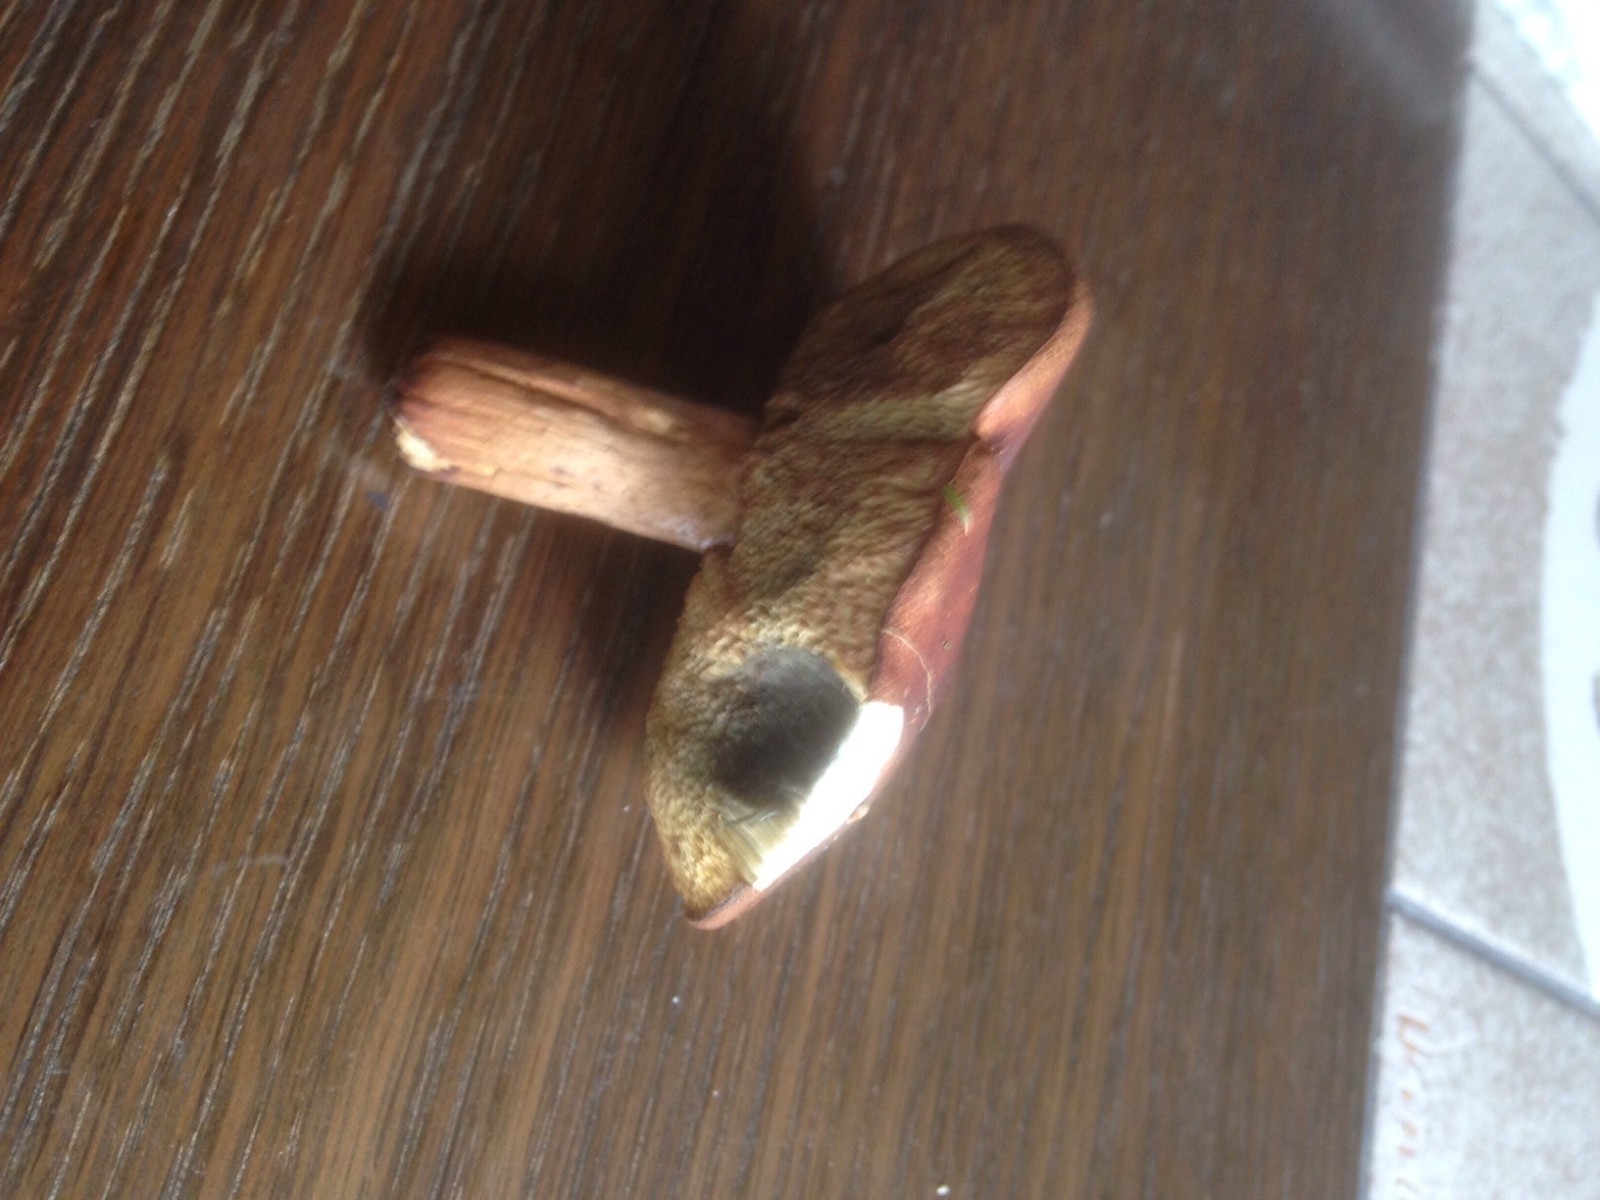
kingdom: Fungi
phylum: Basidiomycota
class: Agaricomycetes
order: Boletales
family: Boletaceae
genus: Imleria
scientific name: Imleria badia
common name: brunstokket rørhat
